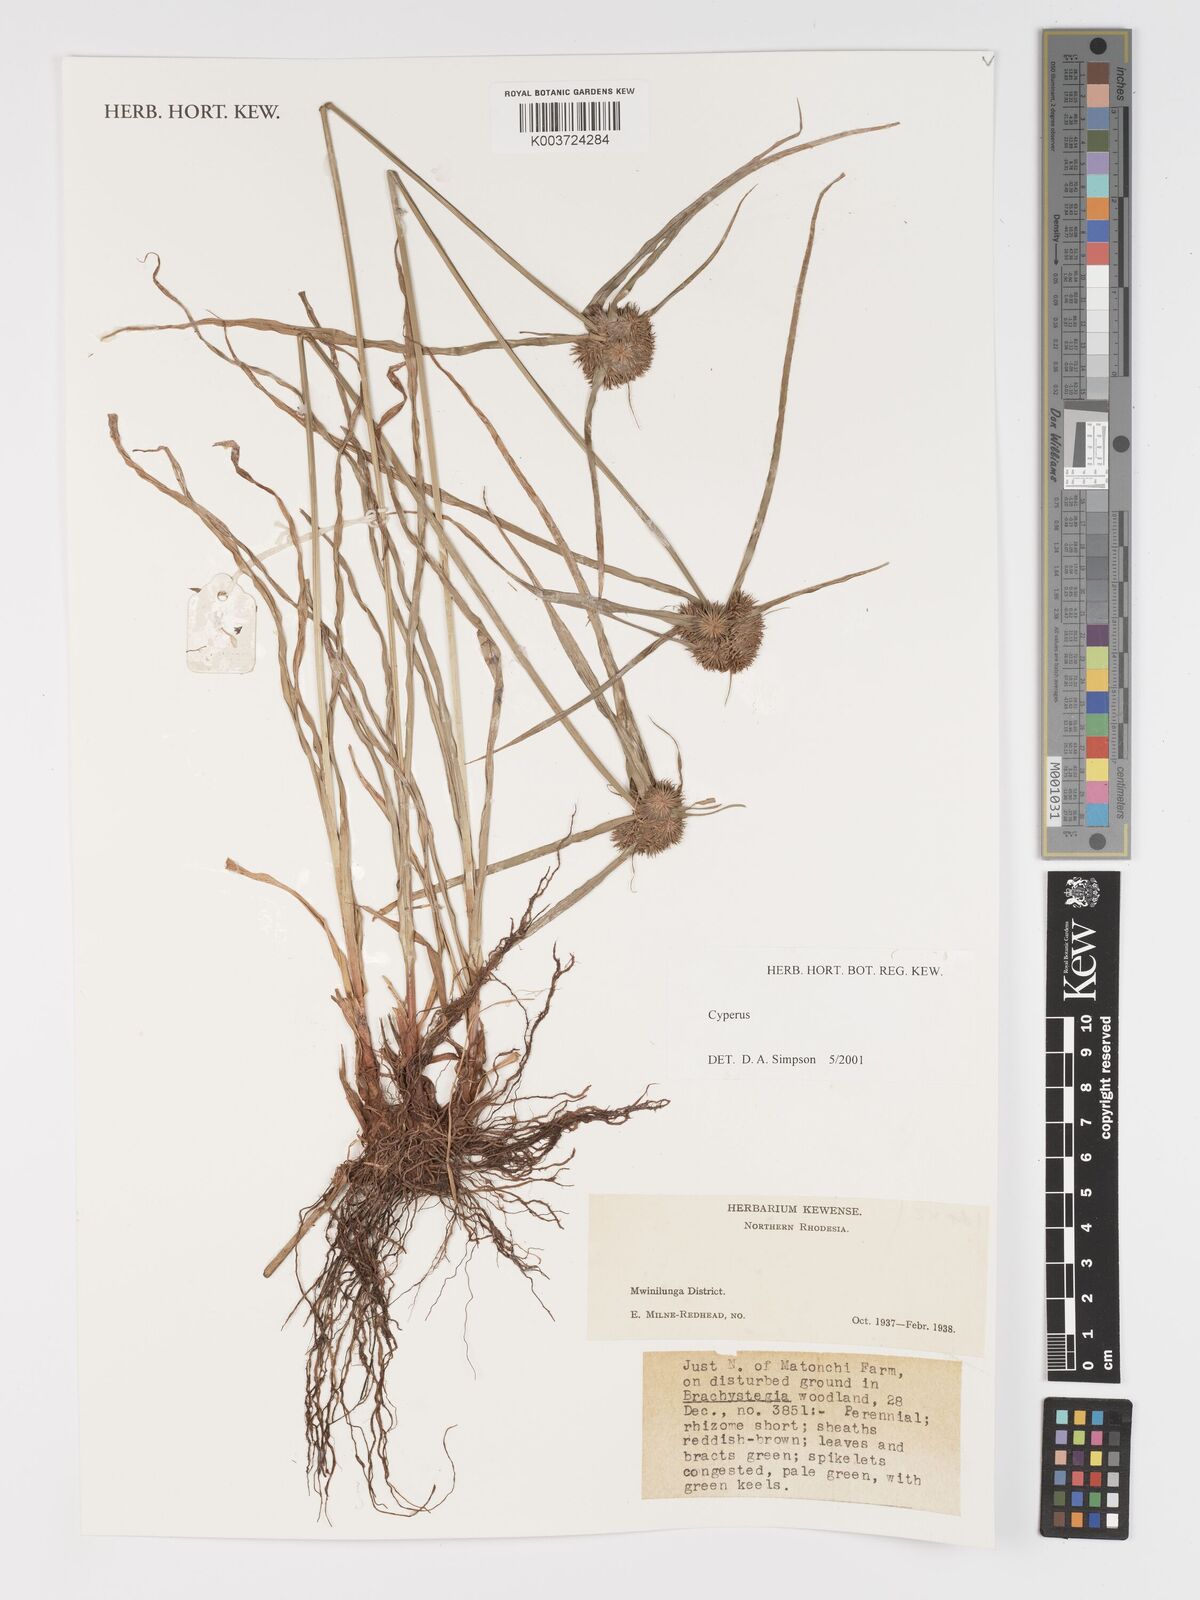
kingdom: Plantae
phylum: Tracheophyta
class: Liliopsida
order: Poales
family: Cyperaceae
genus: Cyperus
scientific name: Cyperus
